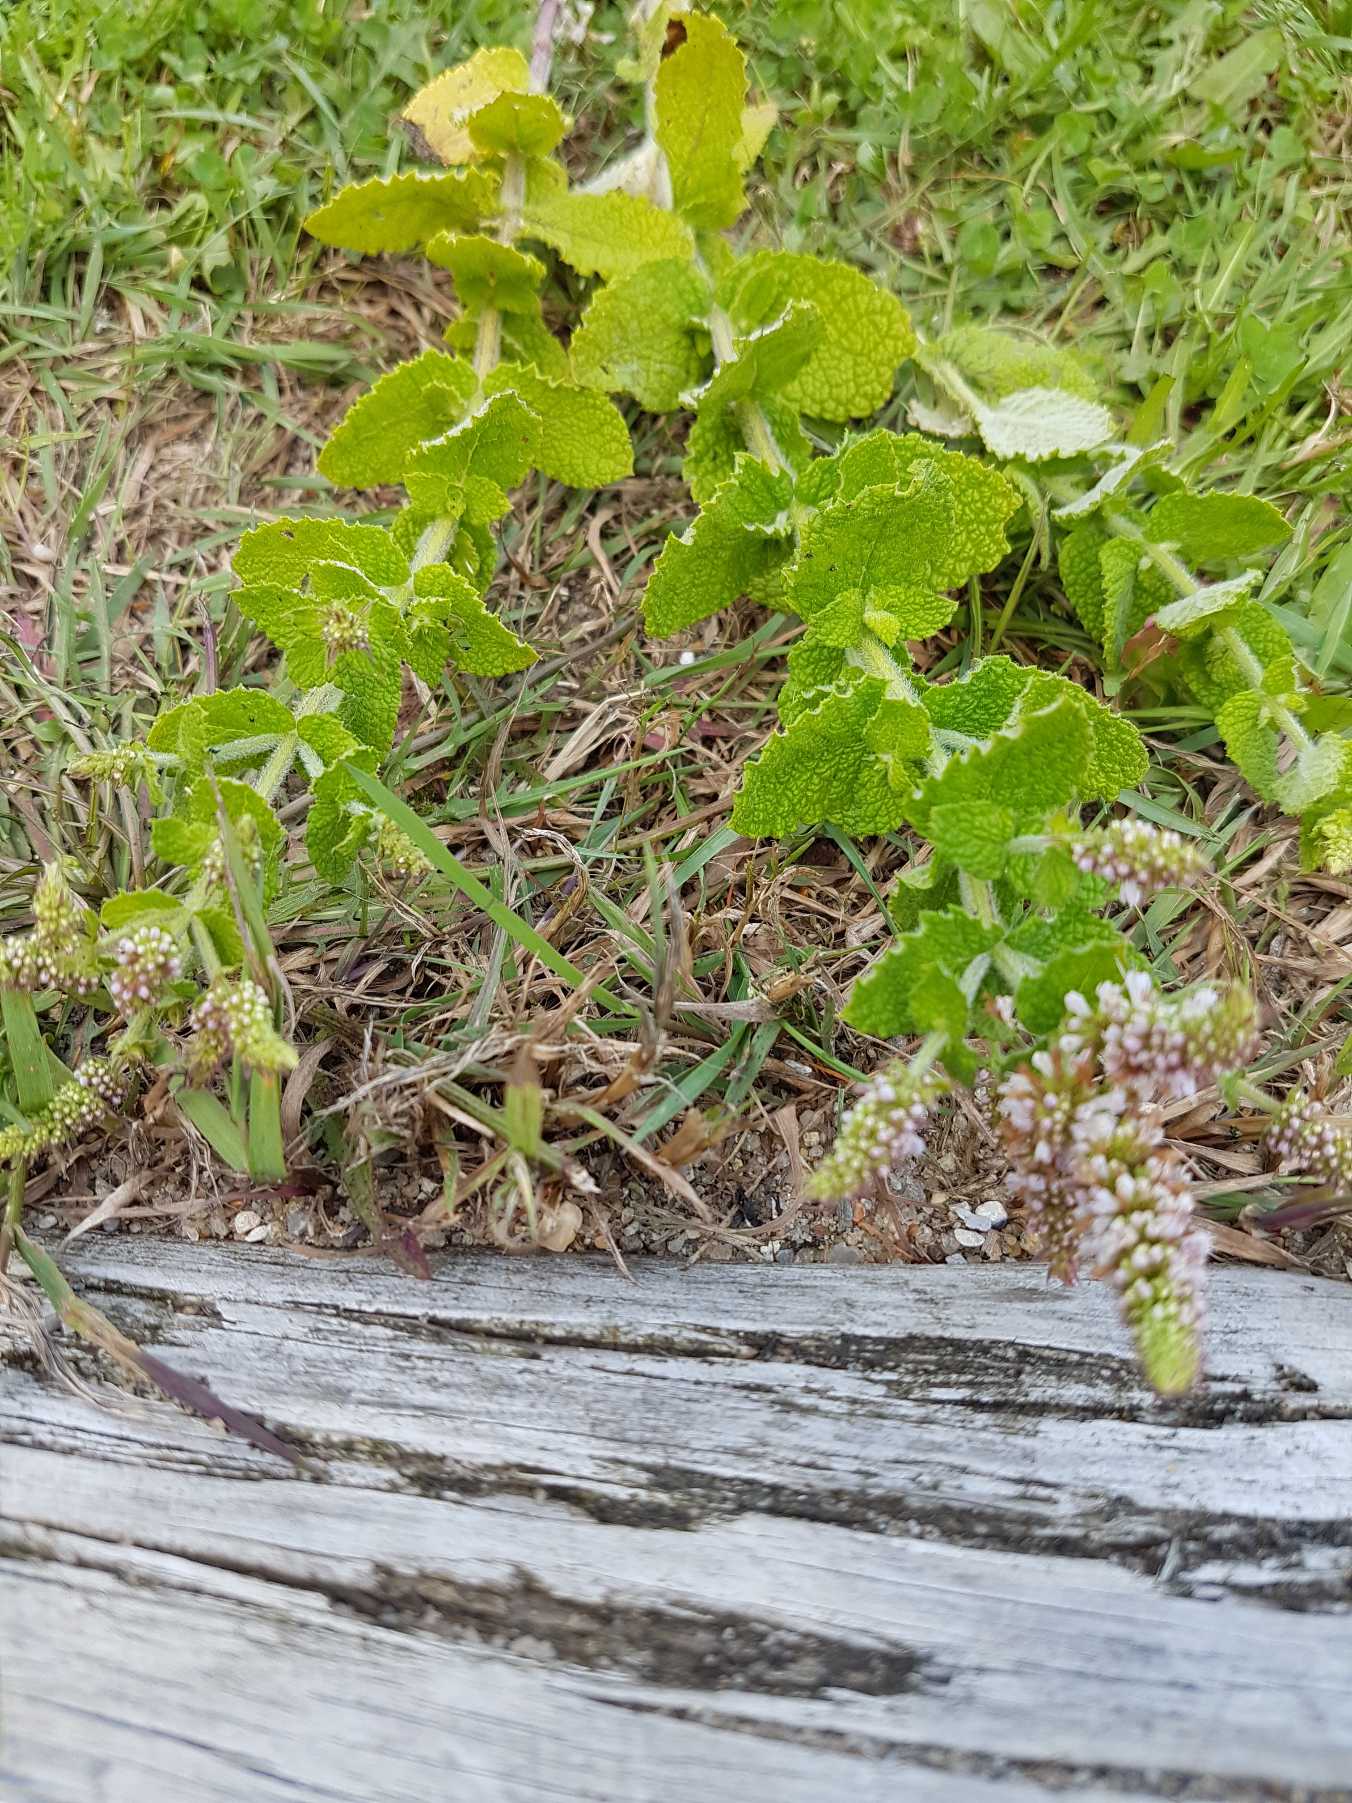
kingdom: Plantae
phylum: Tracheophyta
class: Magnoliopsida
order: Lamiales
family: Lamiaceae
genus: Mentha
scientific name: Mentha suaveolens
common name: Rundbladet mynte
